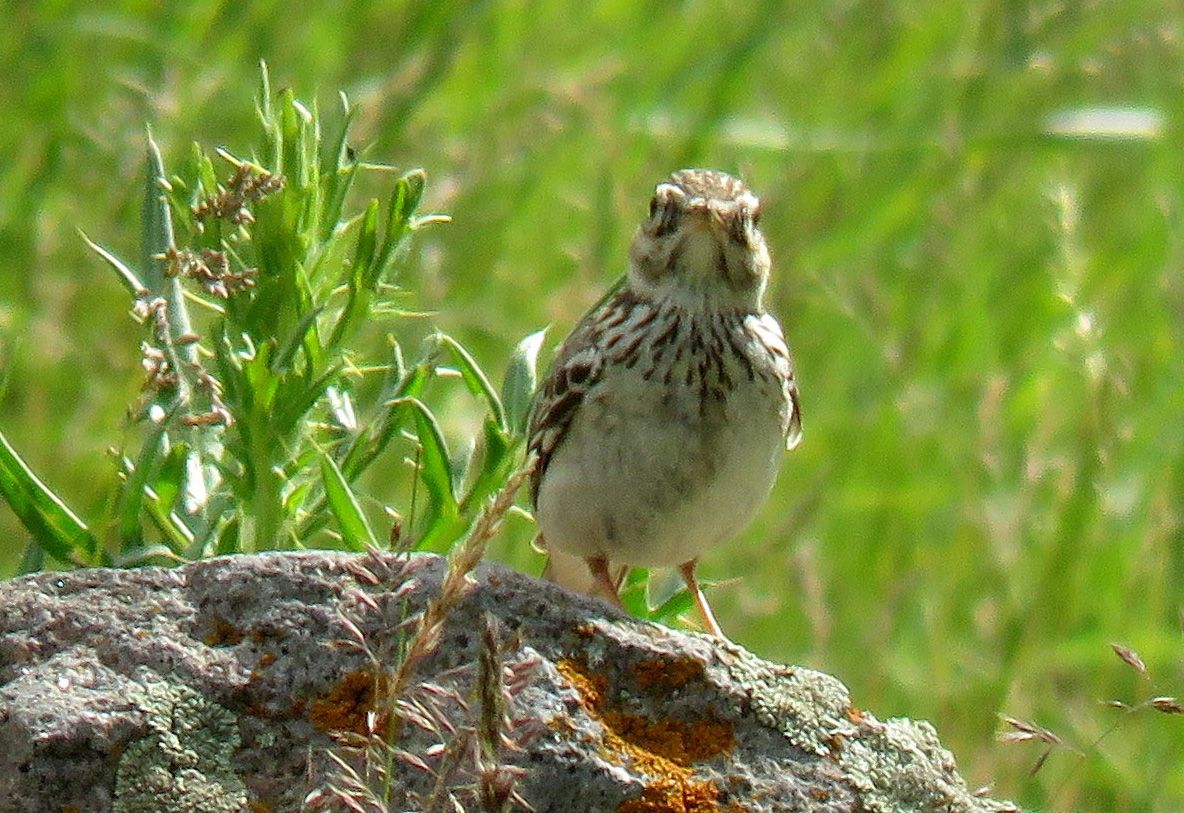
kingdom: Animalia
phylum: Chordata
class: Aves
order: Passeriformes
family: Alaudidae
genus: Lullula
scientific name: Lullula arborea
